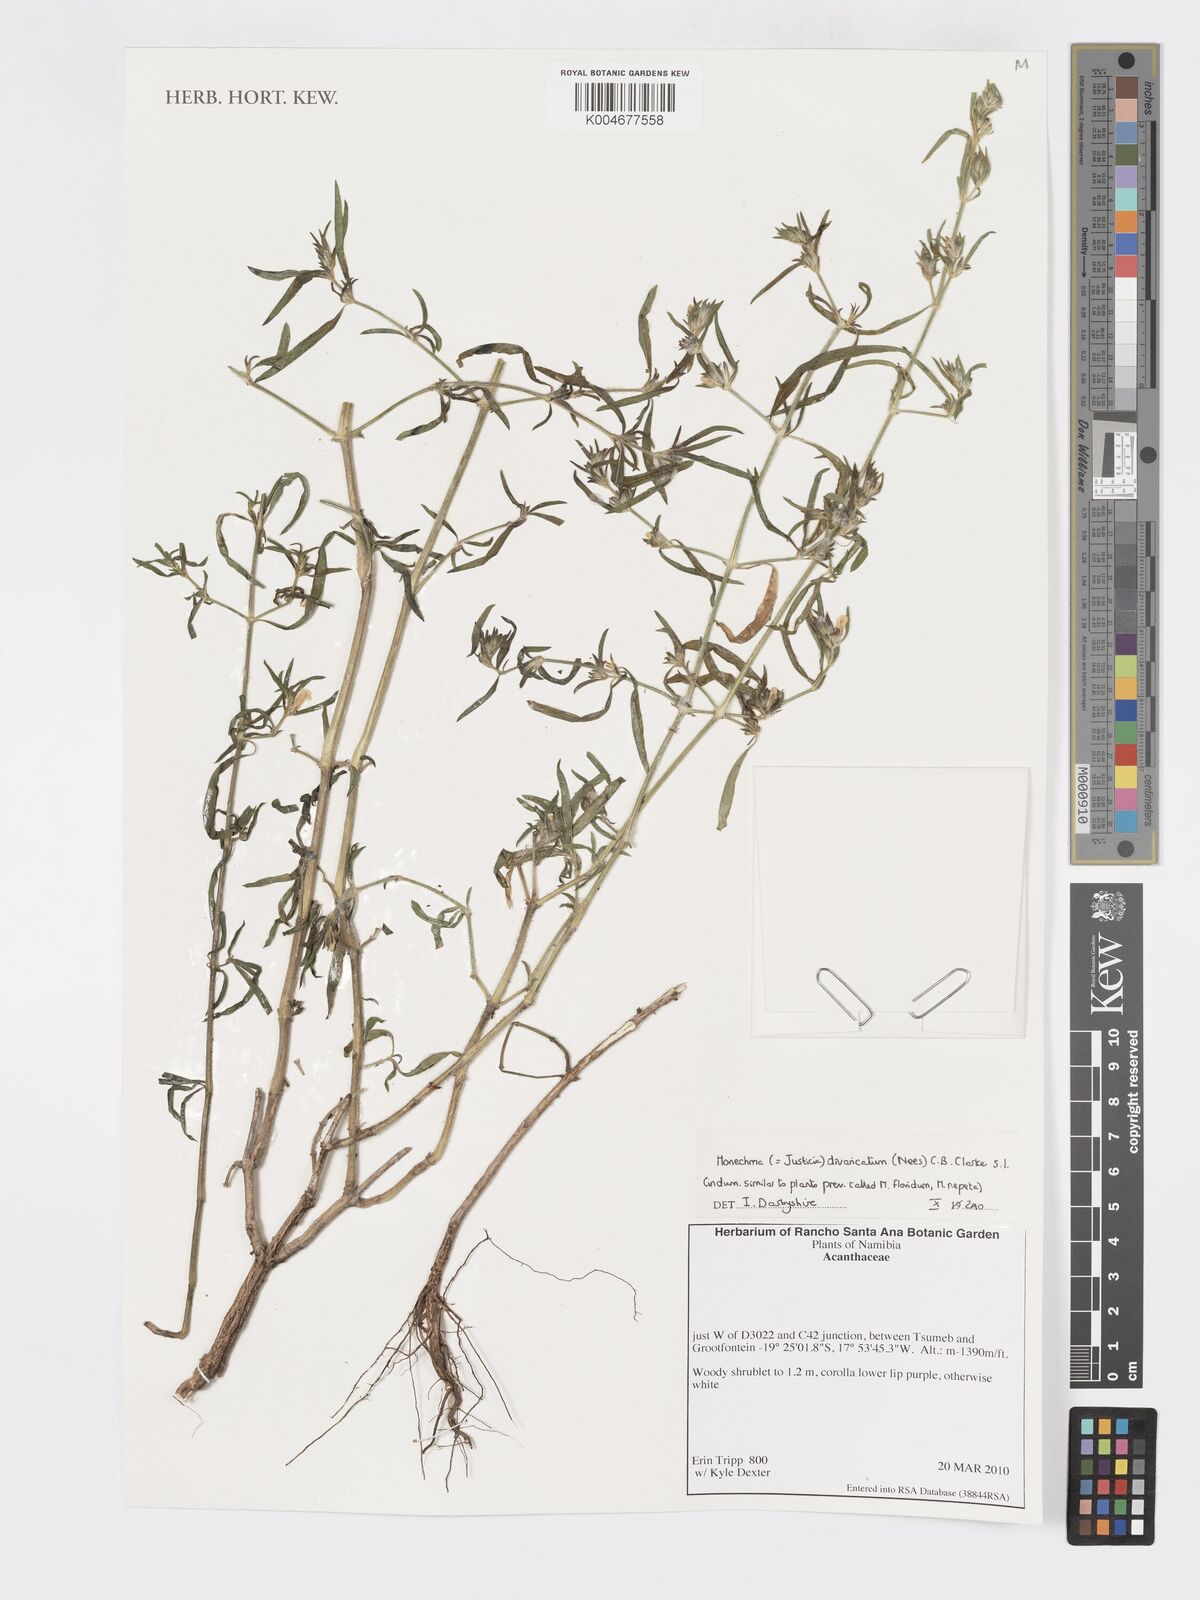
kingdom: Plantae
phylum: Tracheophyta
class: Magnoliopsida
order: Lamiales
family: Acanthaceae
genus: Pogonospermum
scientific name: Pogonospermum
